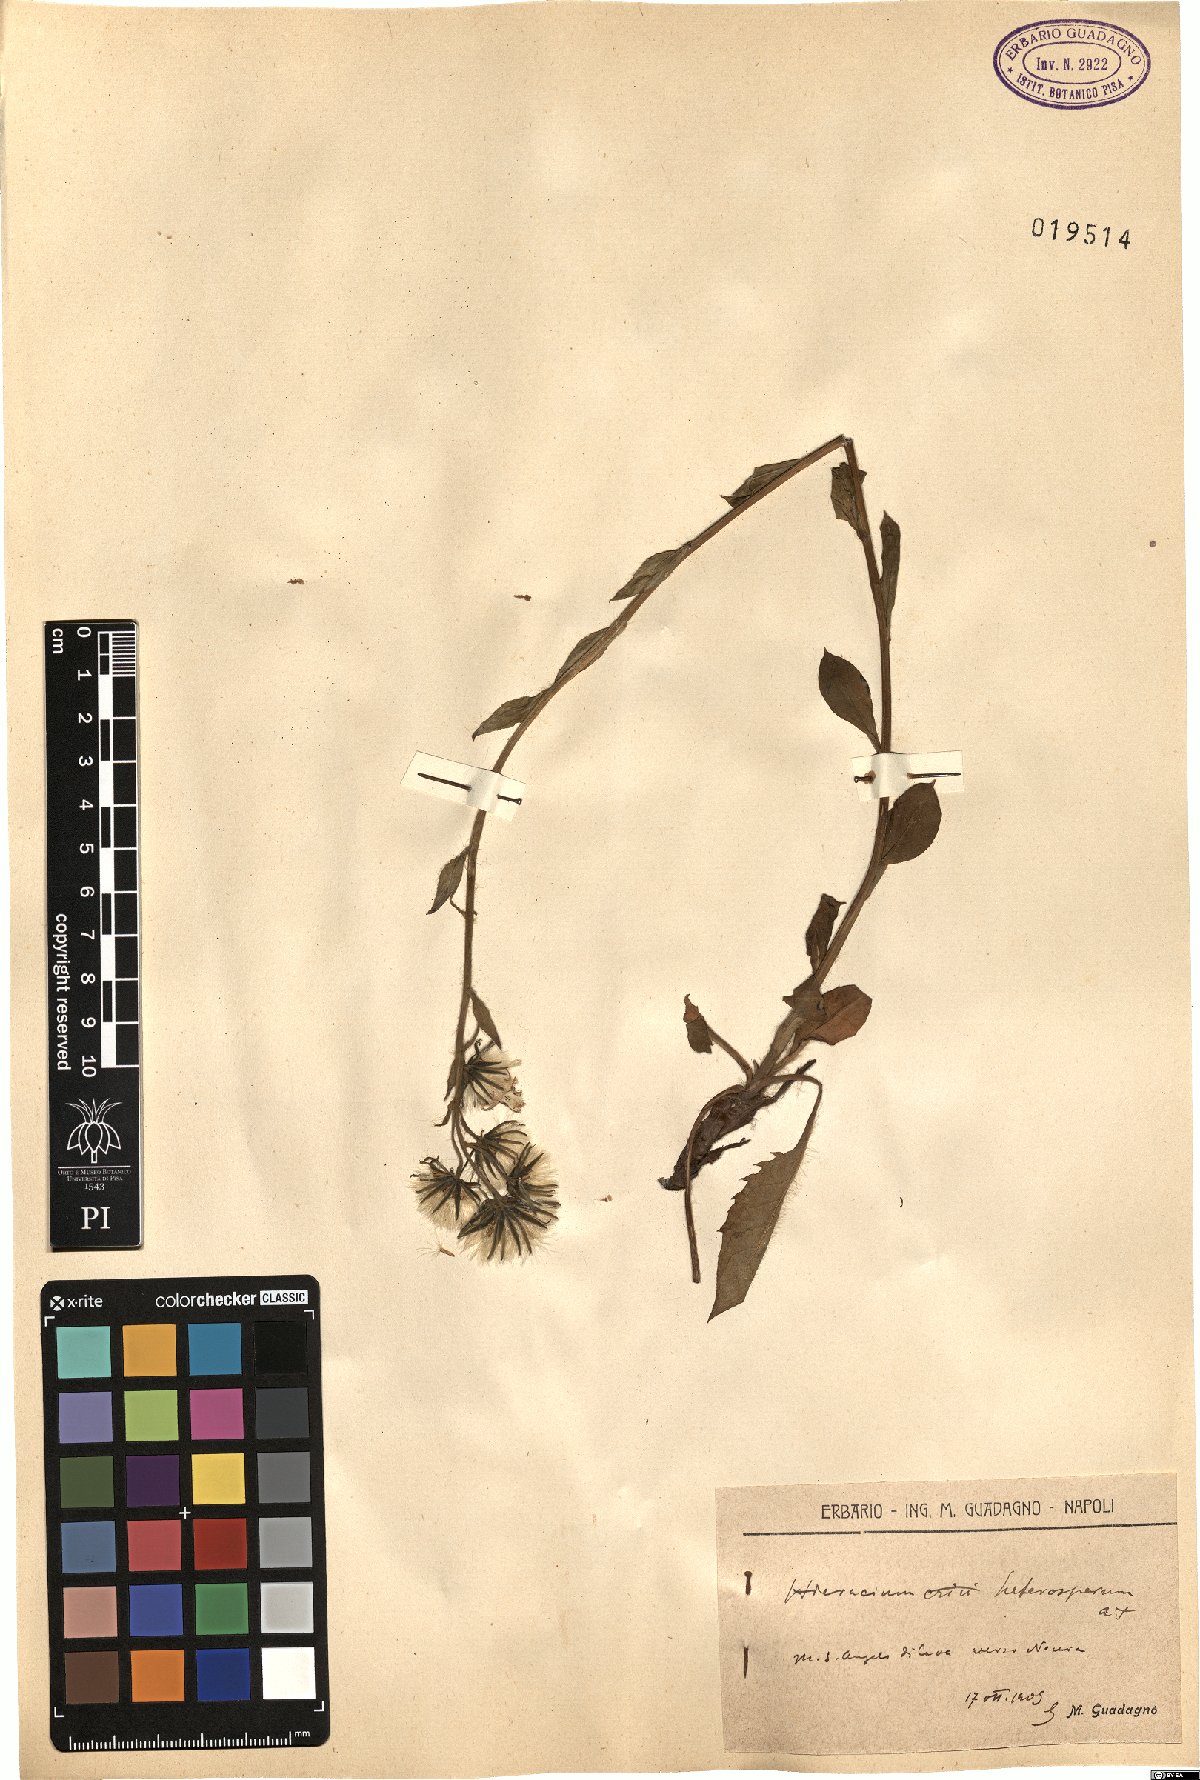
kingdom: Plantae
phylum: Tracheophyta
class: Magnoliopsida
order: Asterales
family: Asteraceae
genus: Hieracium
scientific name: Hieracium racemosum
